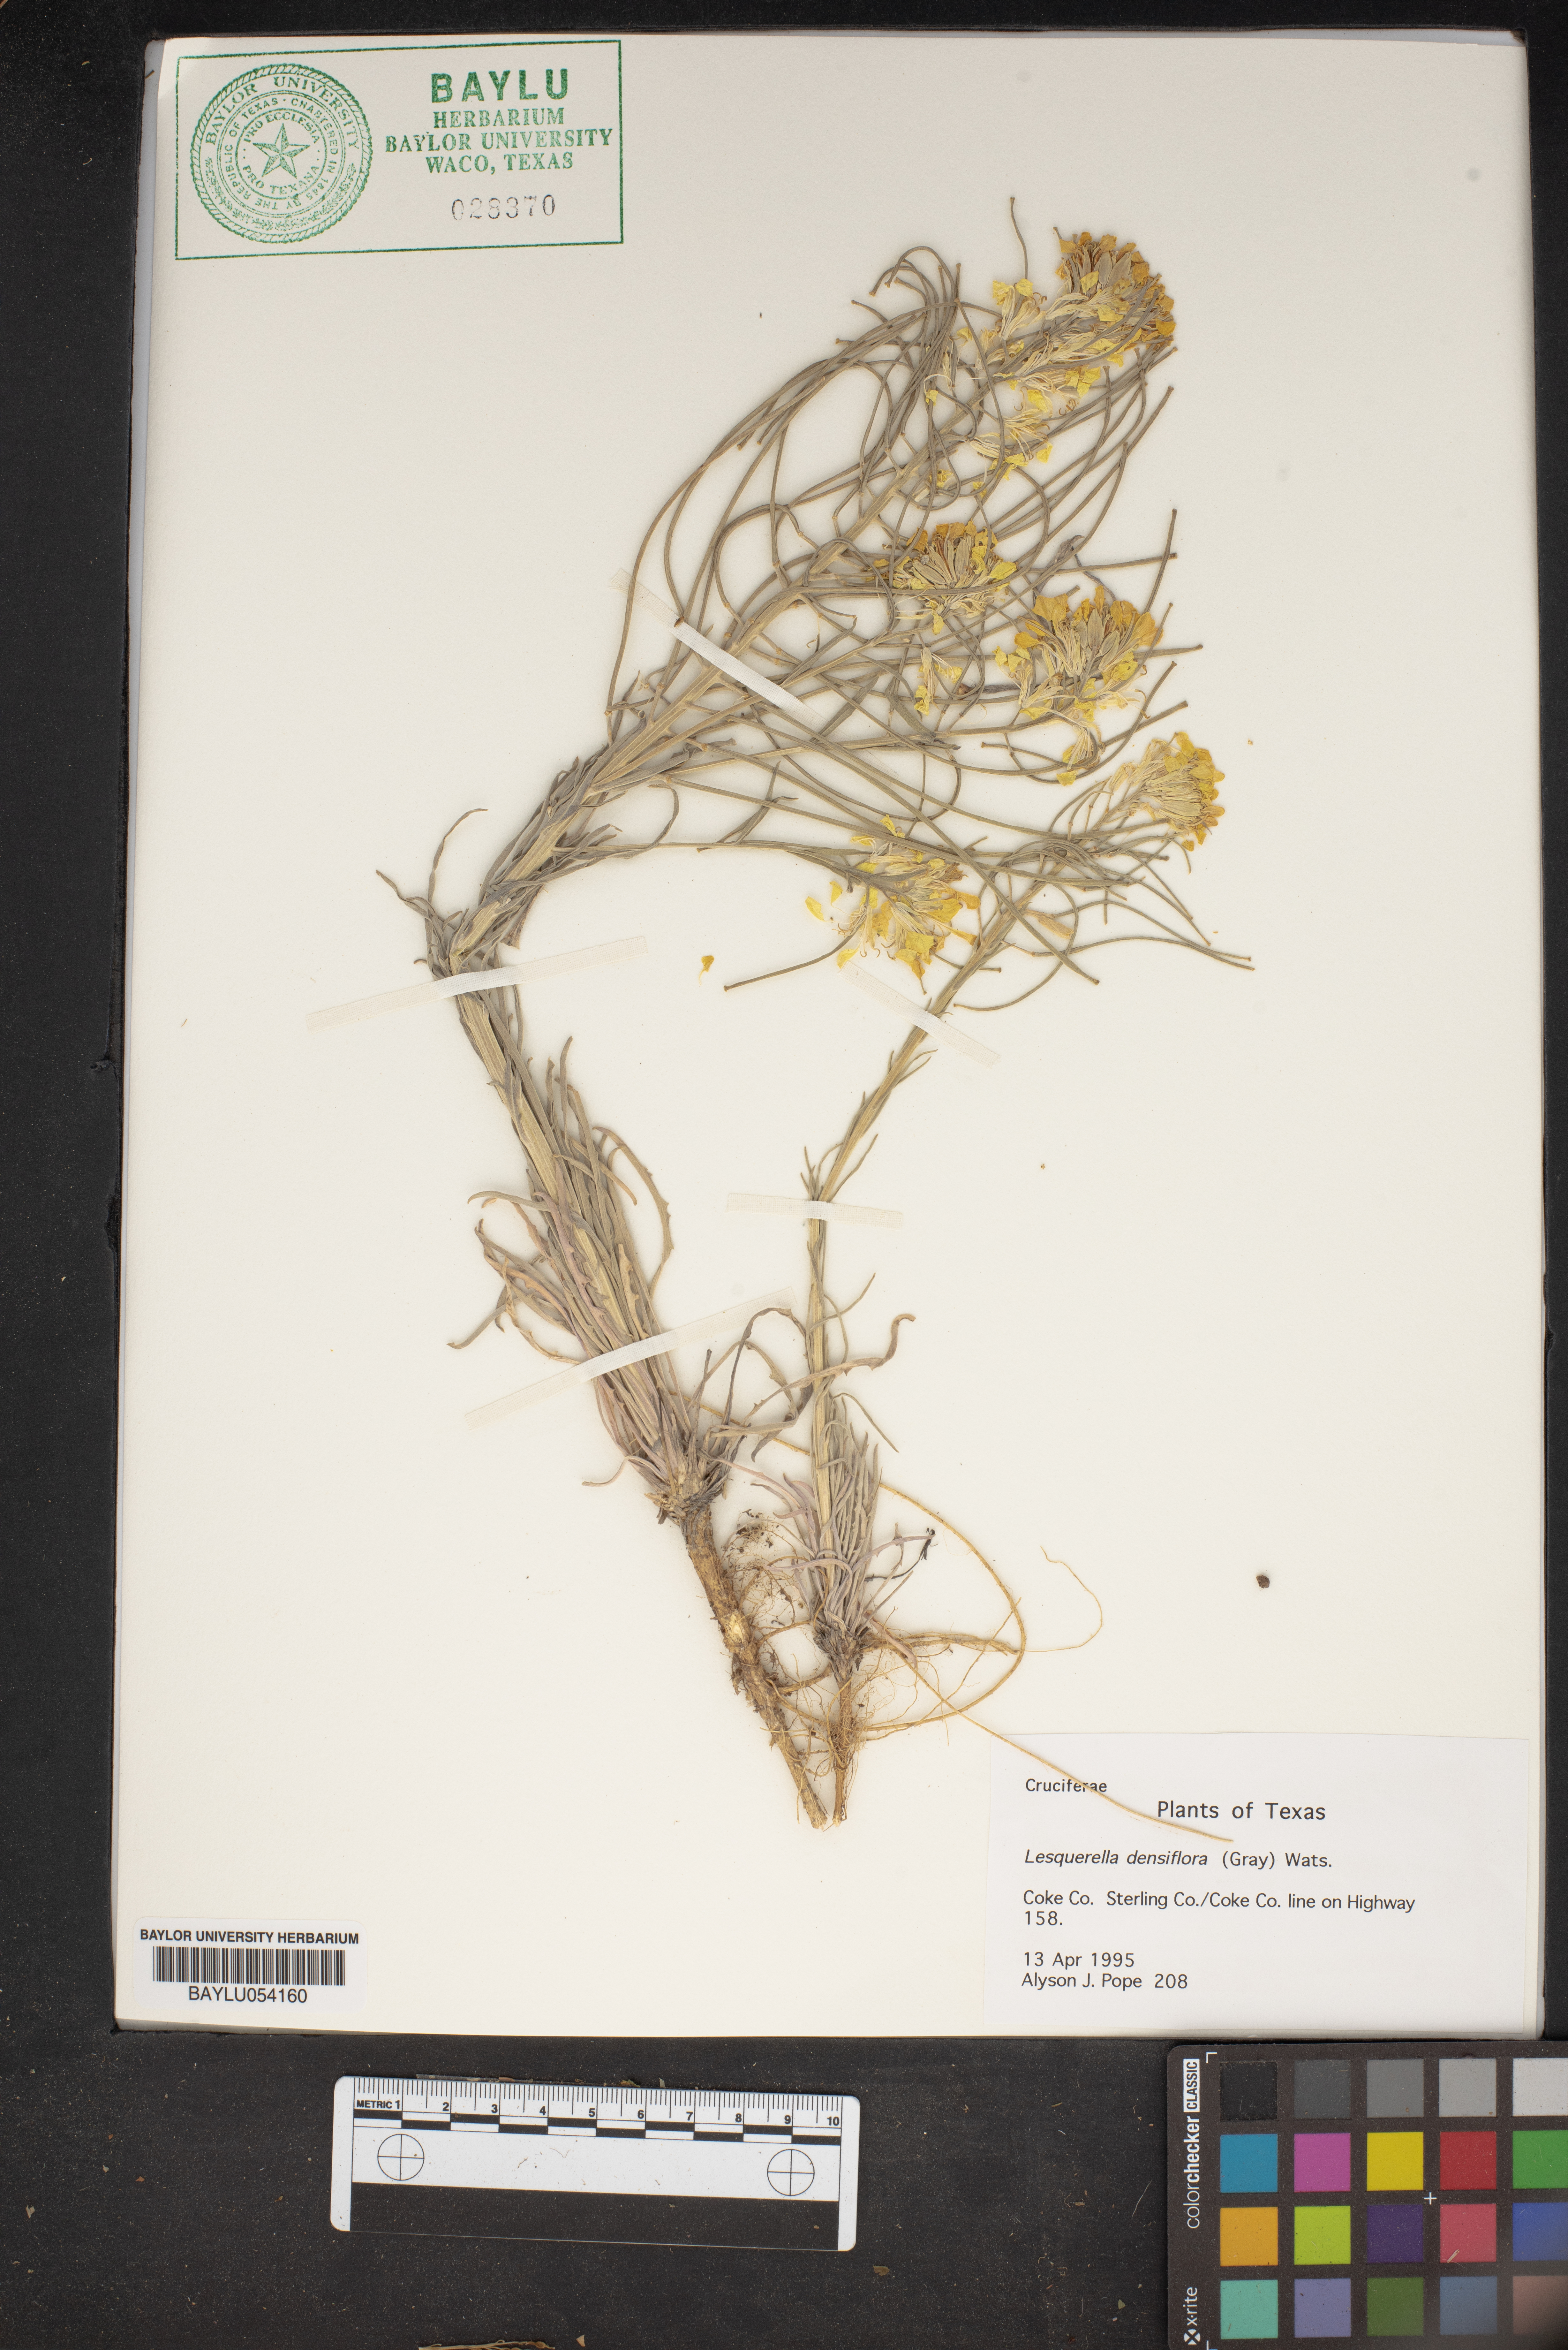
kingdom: Plantae
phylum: Tracheophyta
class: Magnoliopsida
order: Brassicales
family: Brassicaceae
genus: Physaria
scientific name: Physaria densiflora
